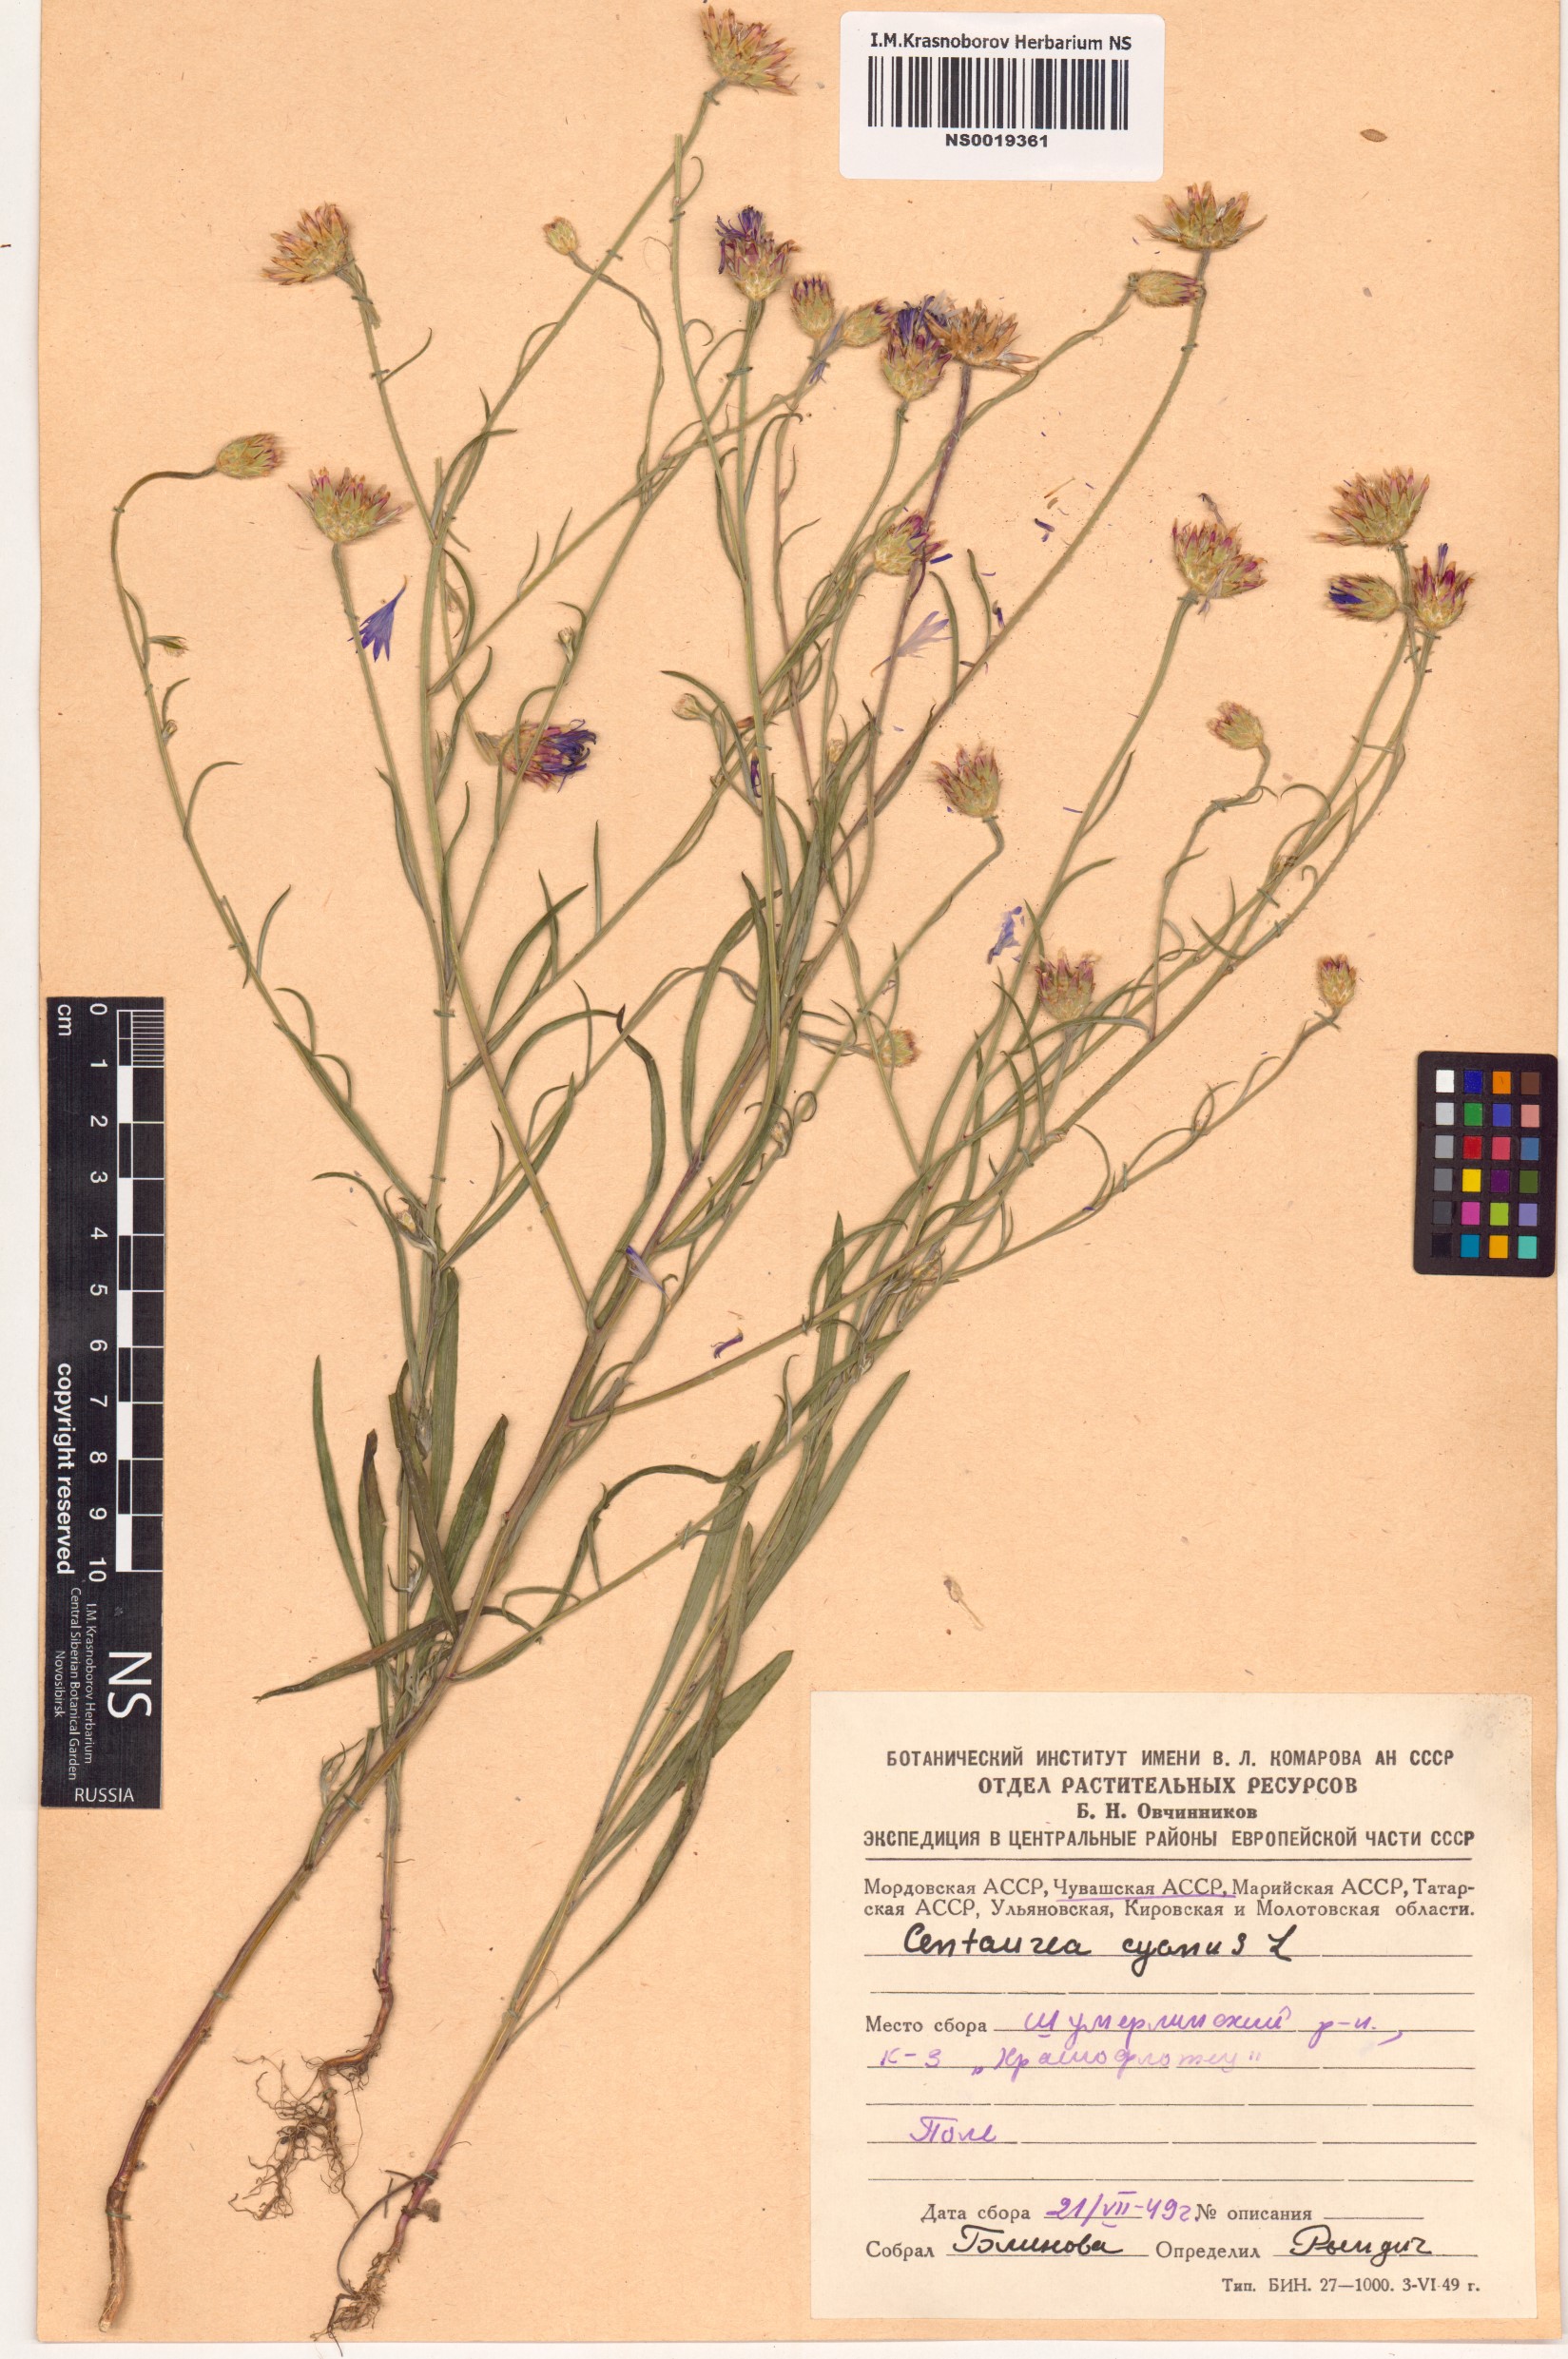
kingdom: Plantae
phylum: Tracheophyta
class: Magnoliopsida
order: Asterales
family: Asteraceae
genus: Centaurea
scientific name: Centaurea cyanus
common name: Cornflower
